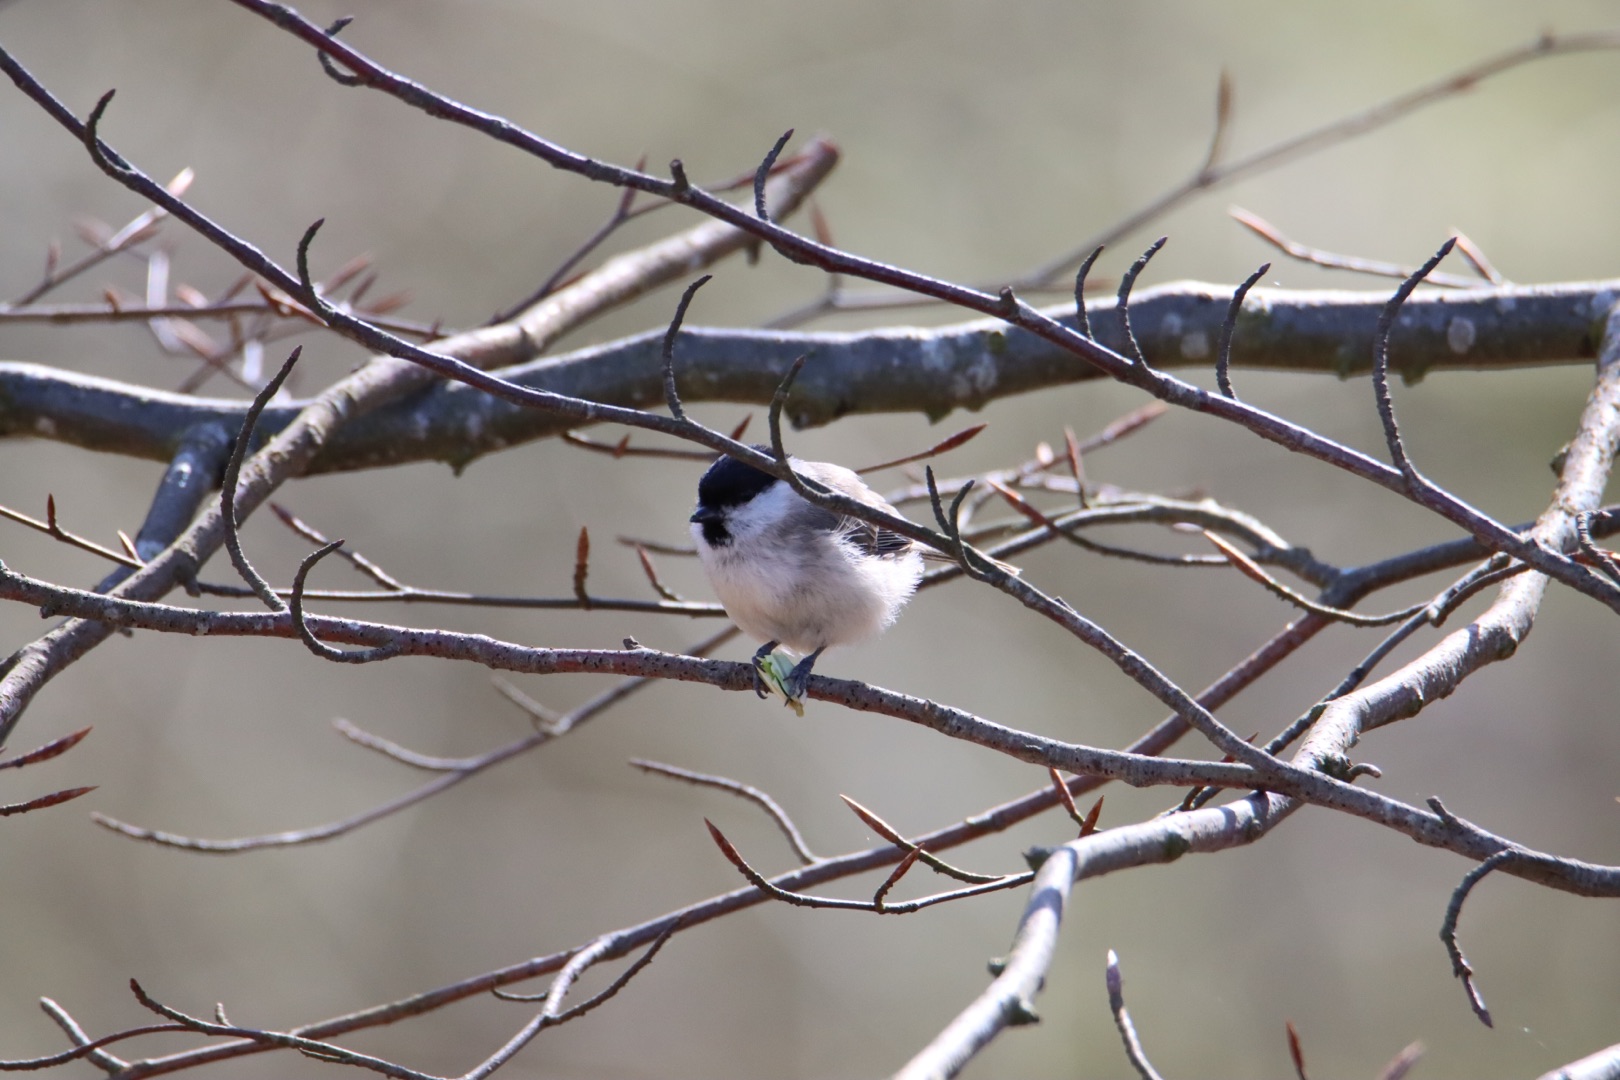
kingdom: Animalia
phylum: Chordata
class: Aves
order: Passeriformes
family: Paridae
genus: Poecile
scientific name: Poecile palustris
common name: Sumpmejse
